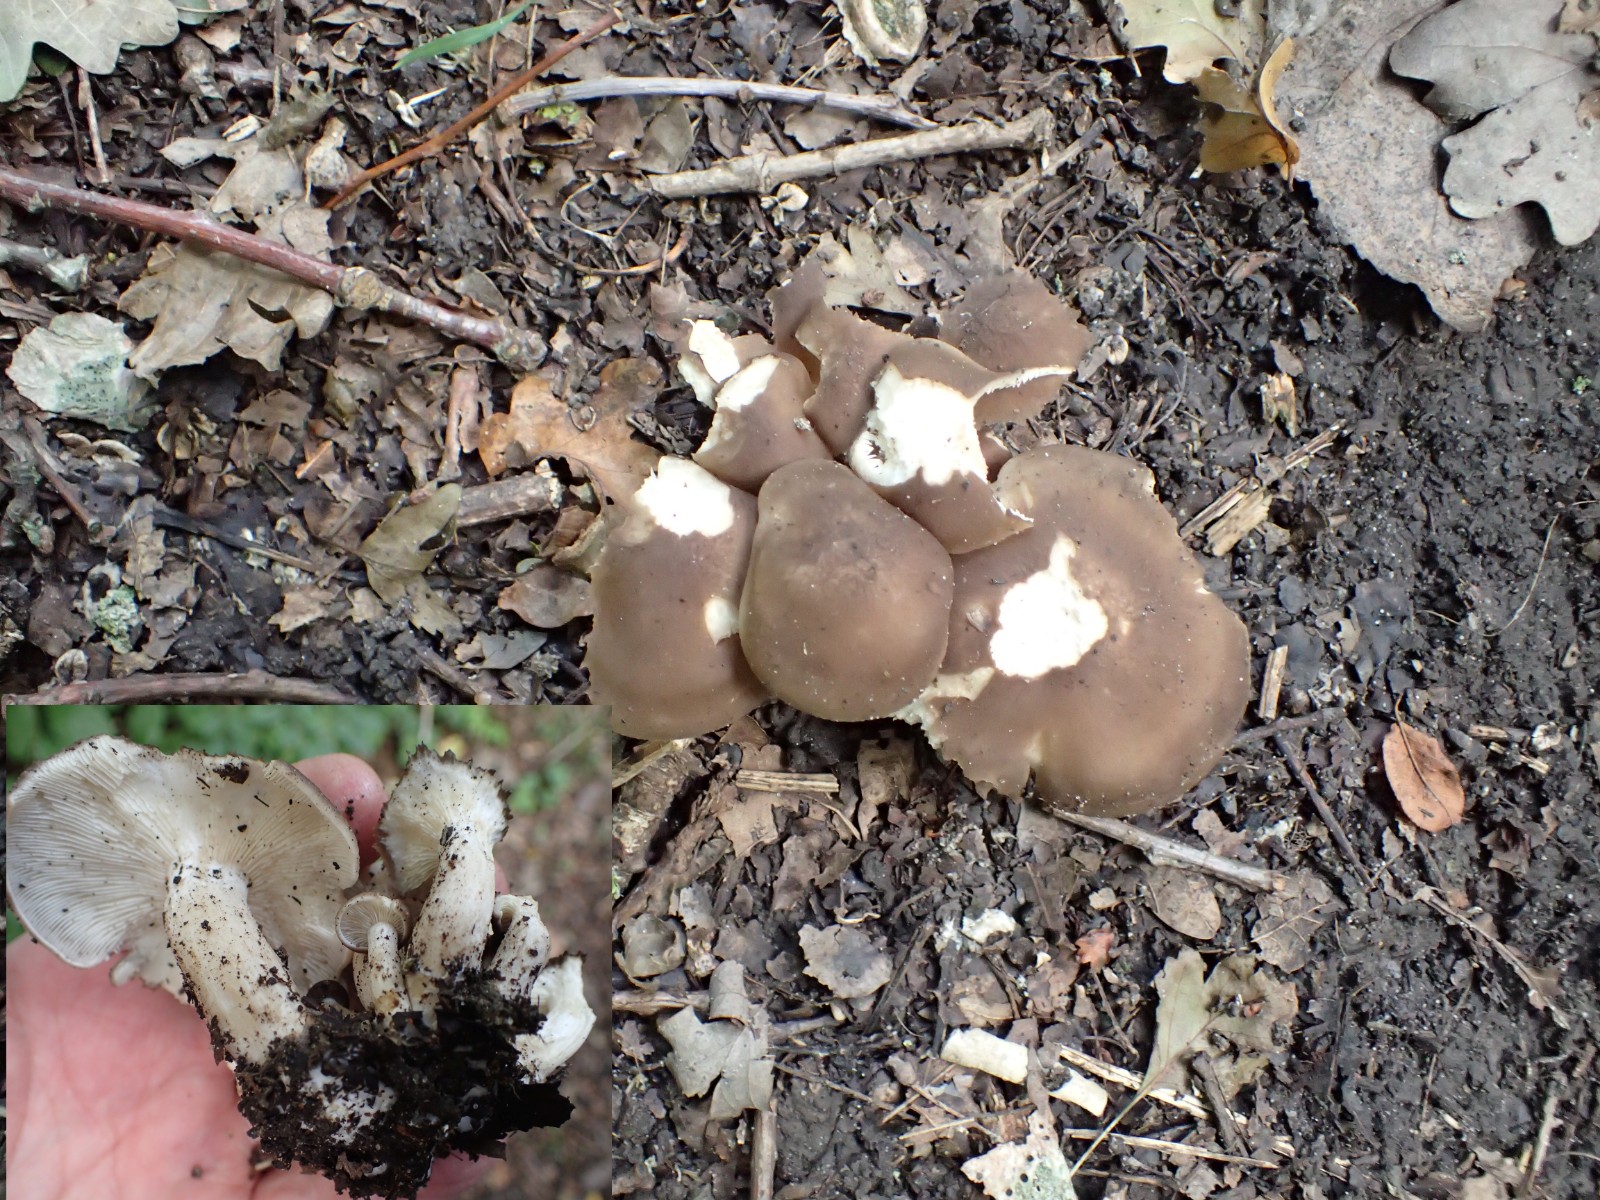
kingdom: Fungi
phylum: Basidiomycota
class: Agaricomycetes
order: Agaricales
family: Lyophyllaceae
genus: Lyophyllum
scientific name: Lyophyllum
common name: gråblad
